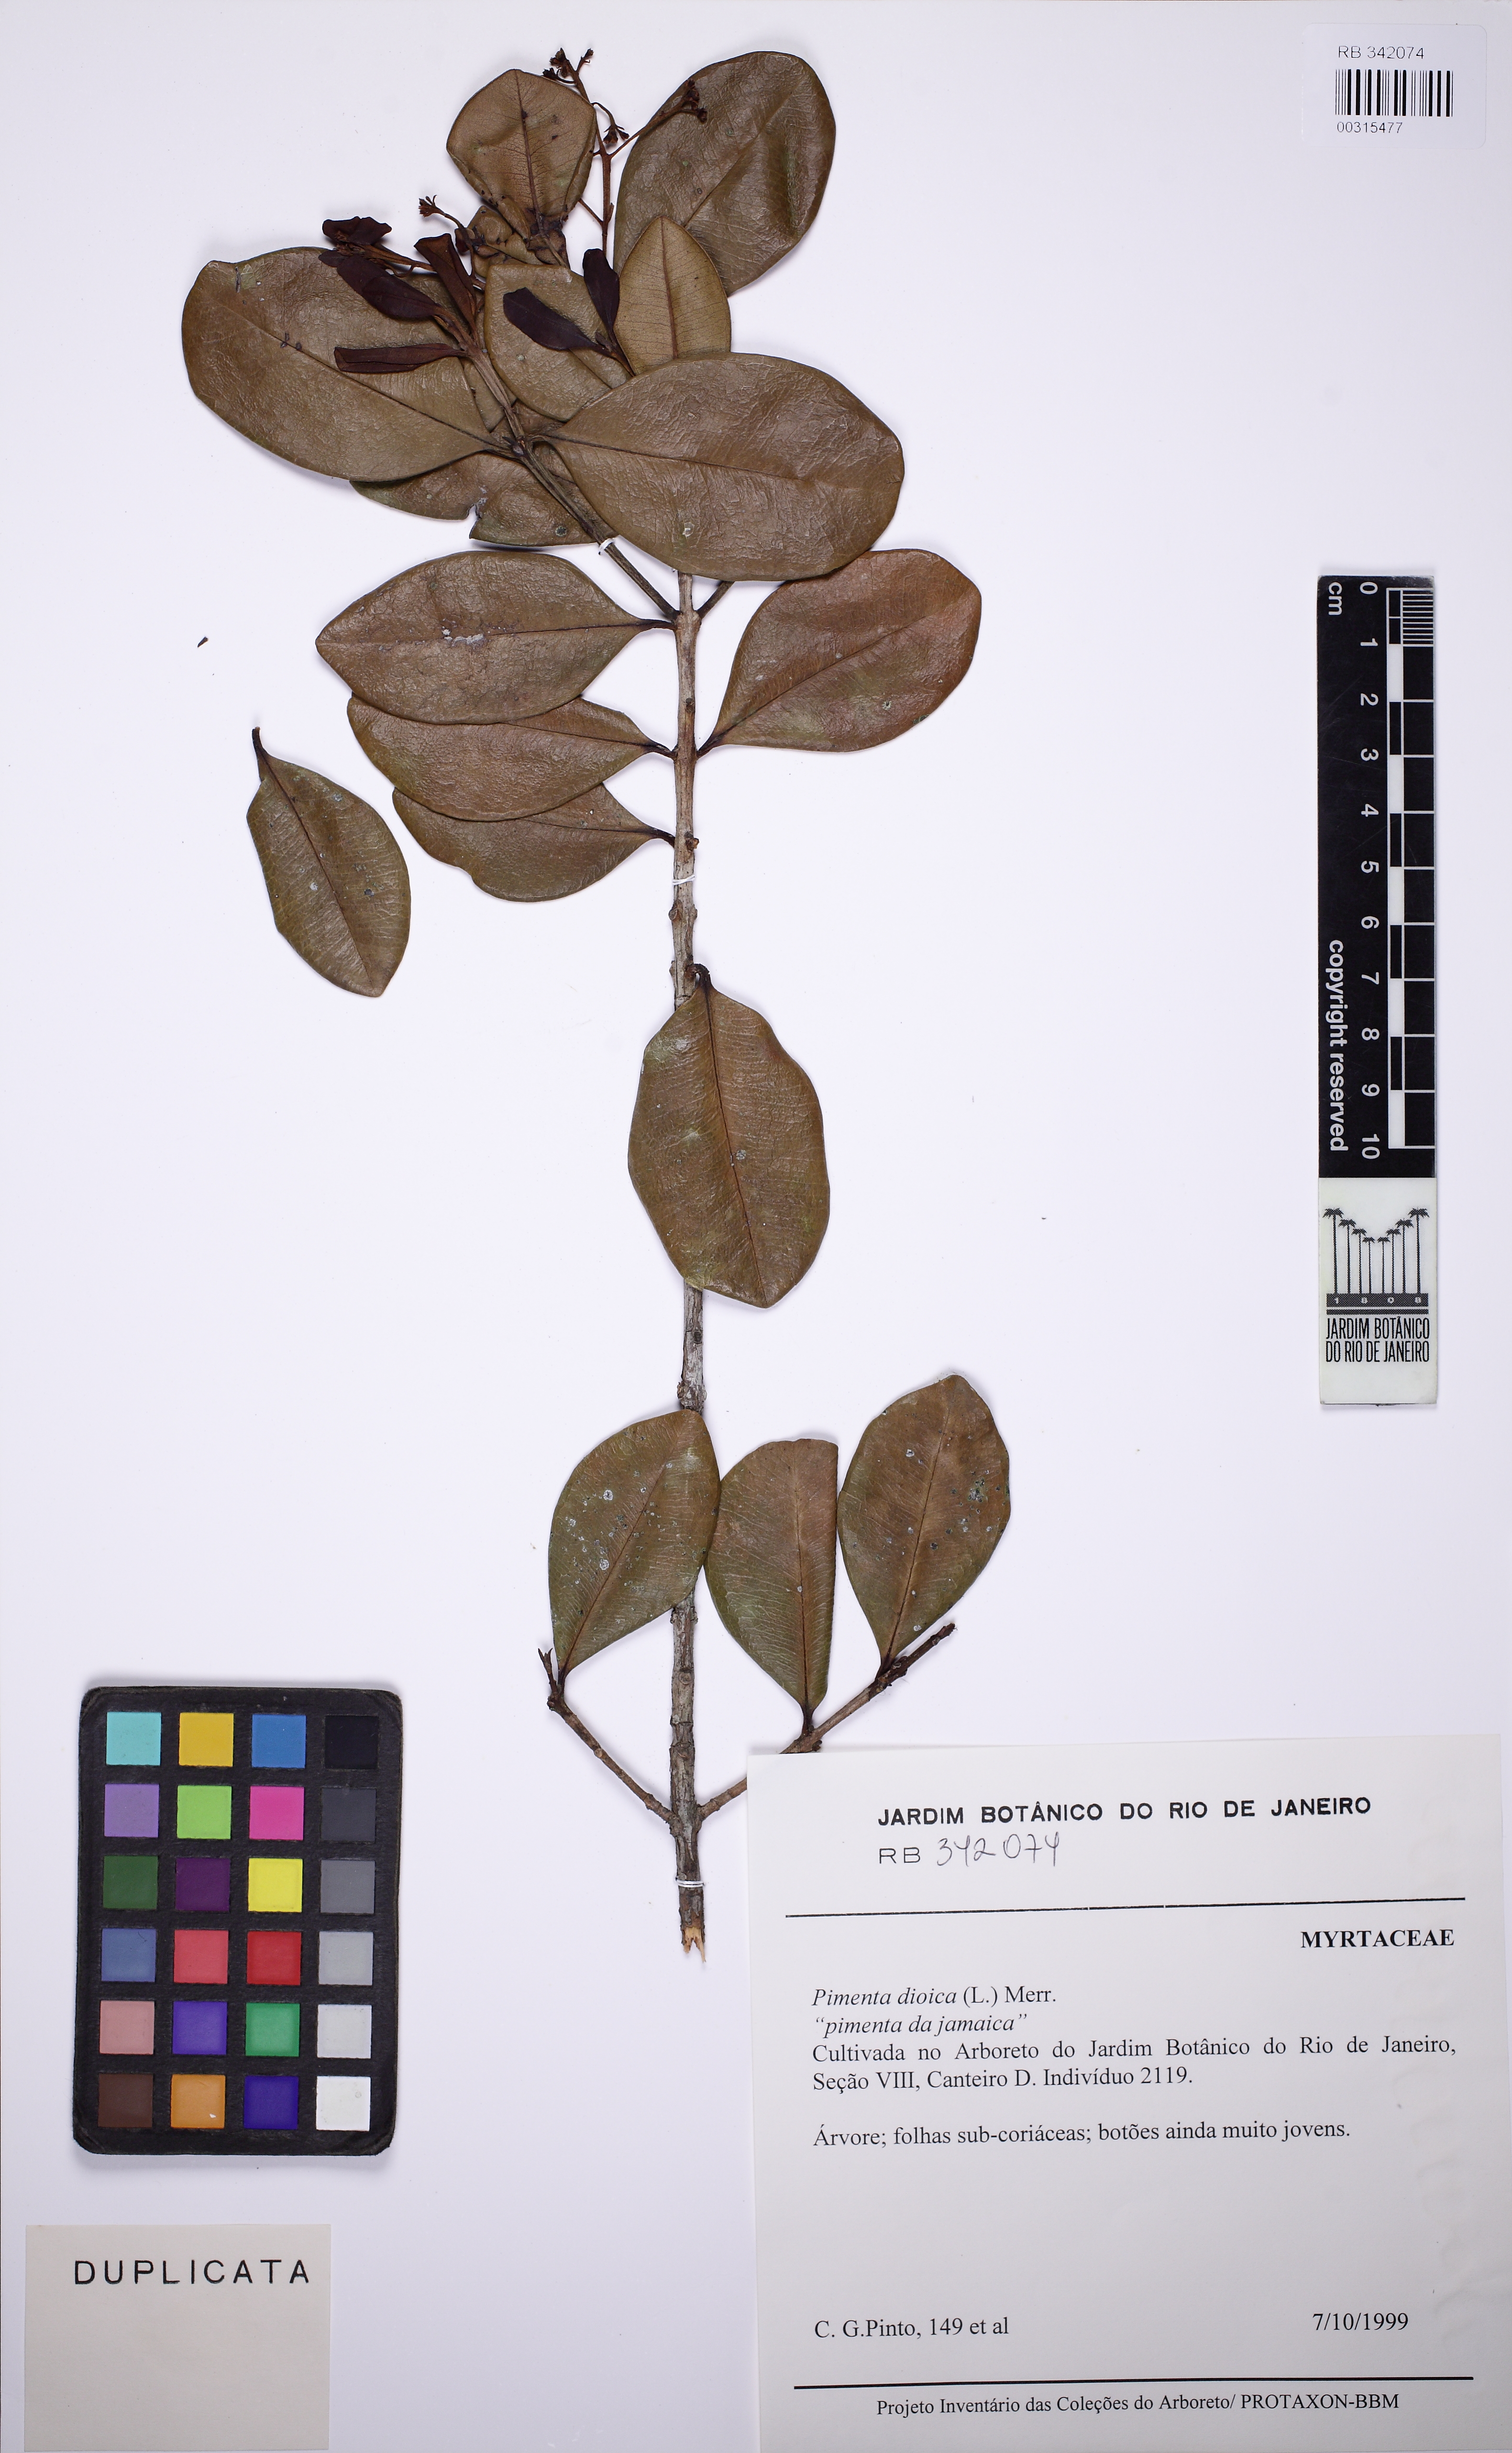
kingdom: Plantae
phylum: Tracheophyta
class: Magnoliopsida
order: Myrtales
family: Myrtaceae
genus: Pimenta
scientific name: Pimenta dioica
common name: Allspice
